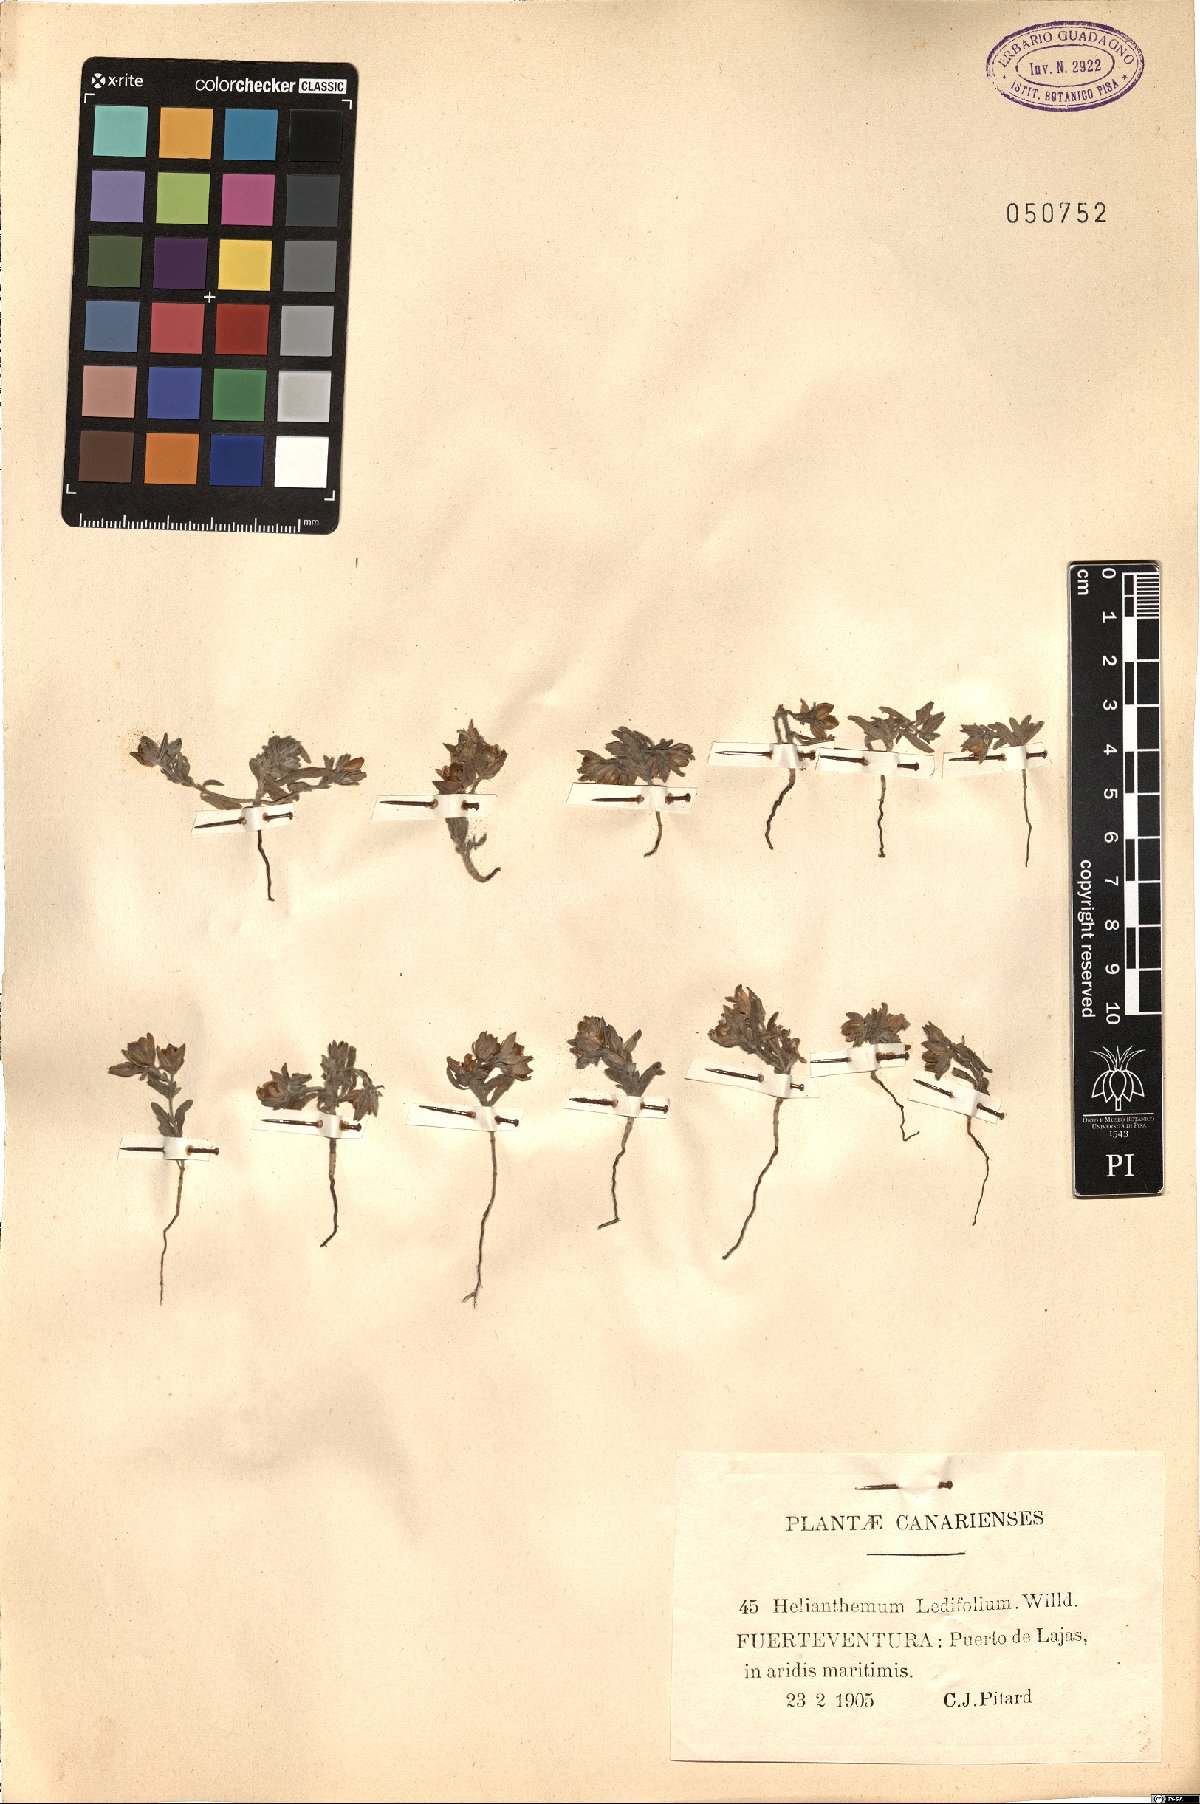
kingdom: Plantae
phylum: Tracheophyta
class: Magnoliopsida
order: Malvales
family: Cistaceae
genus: Helianthemum
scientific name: Helianthemum ledifolium
